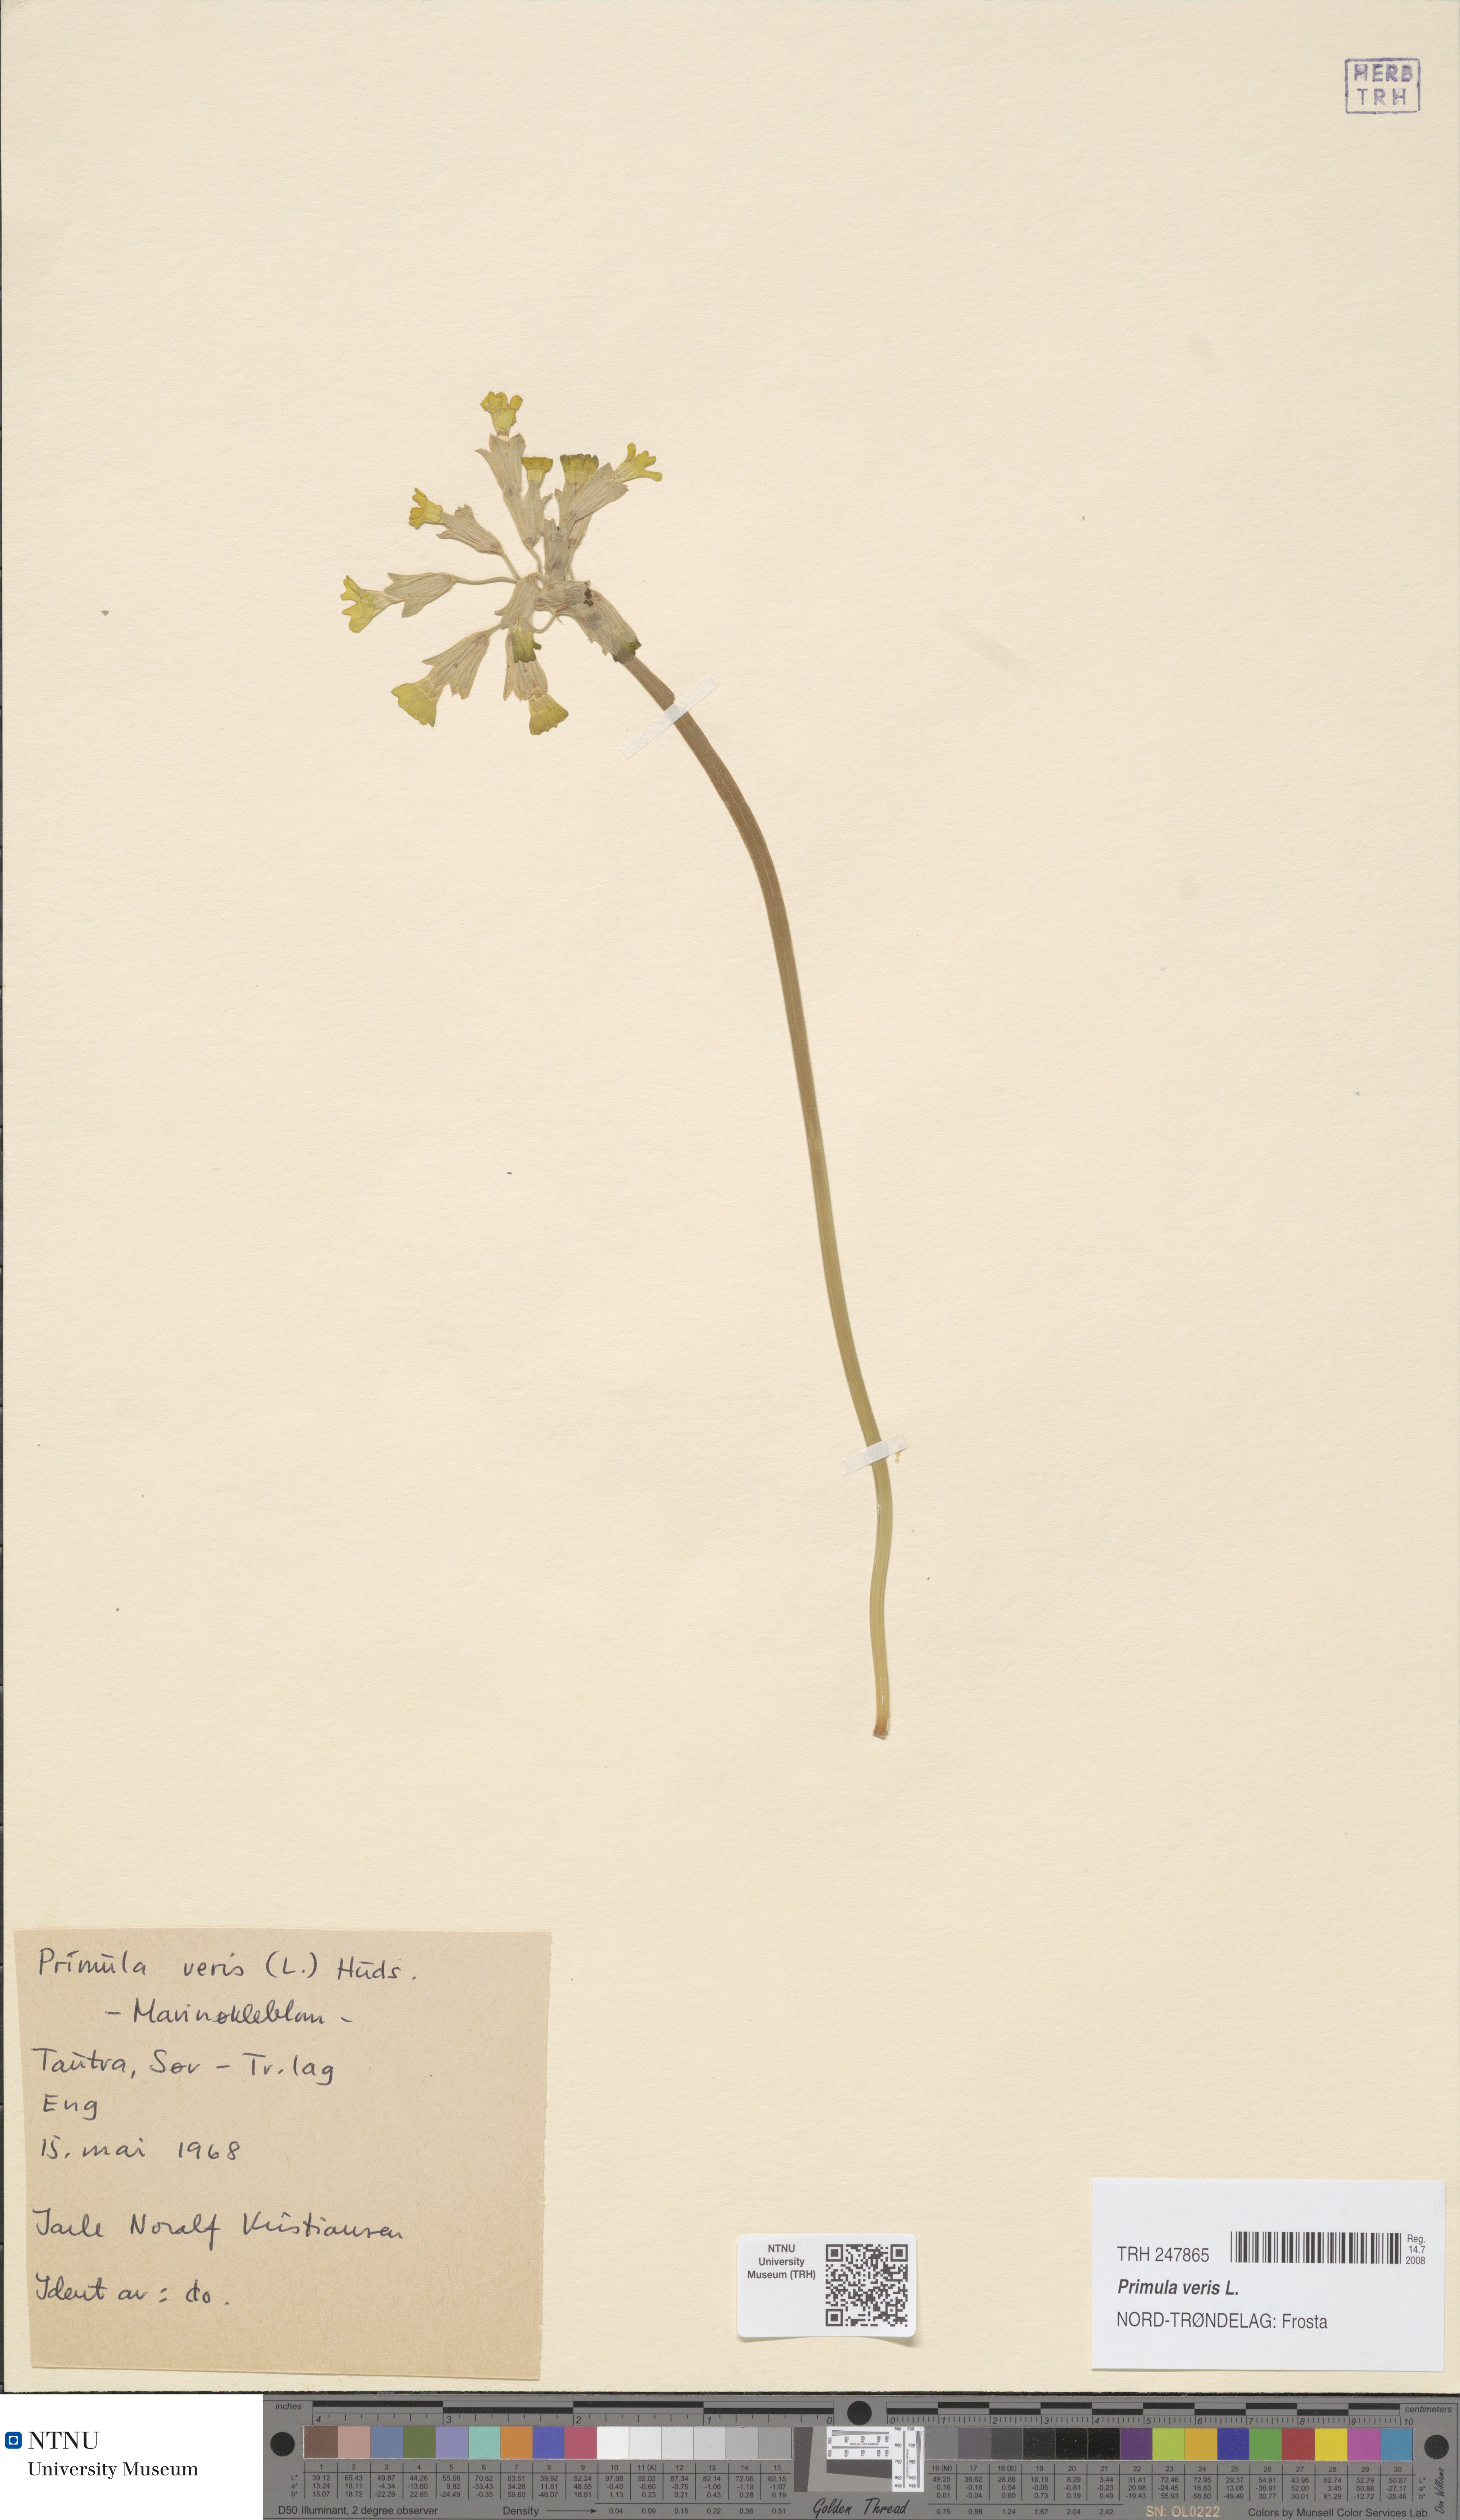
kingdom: Plantae
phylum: Tracheophyta
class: Magnoliopsida
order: Ericales
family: Primulaceae
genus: Primula
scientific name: Primula veris
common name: Cowslip
